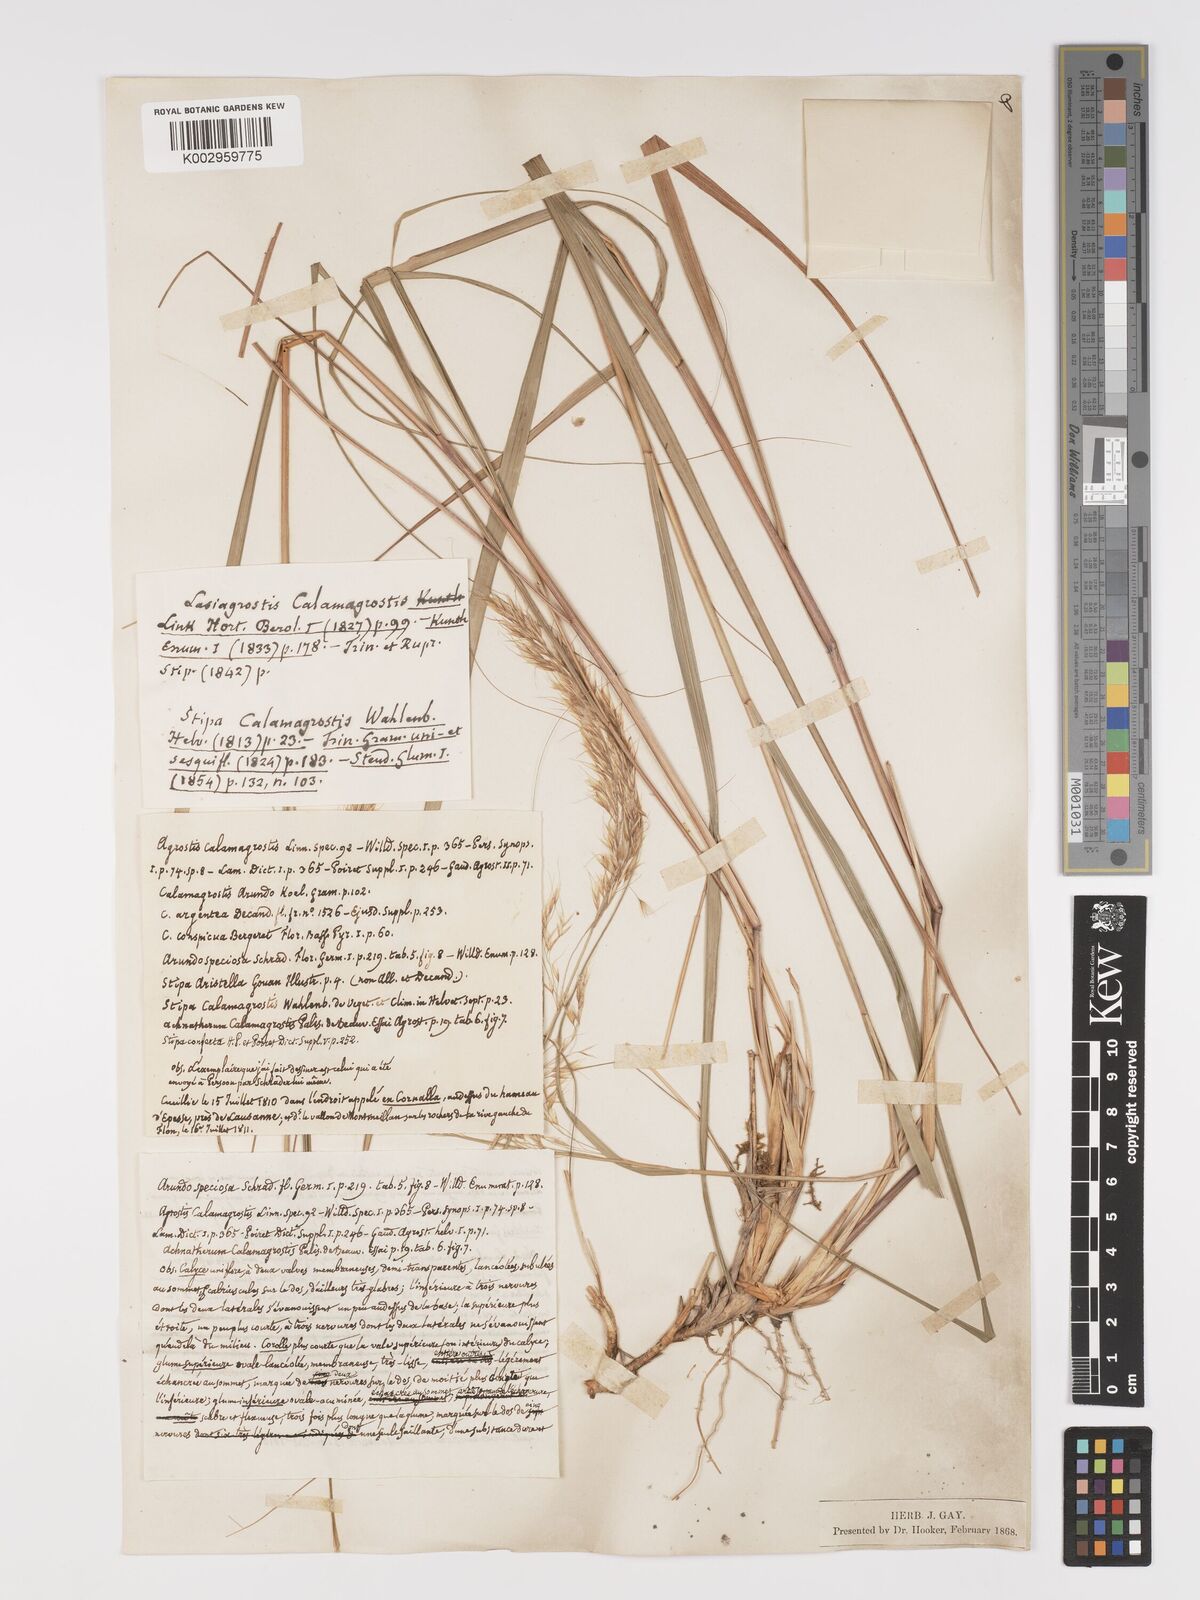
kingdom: Plantae
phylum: Tracheophyta
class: Liliopsida
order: Poales
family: Poaceae
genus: Achnatherum
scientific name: Achnatherum calamagrostis
